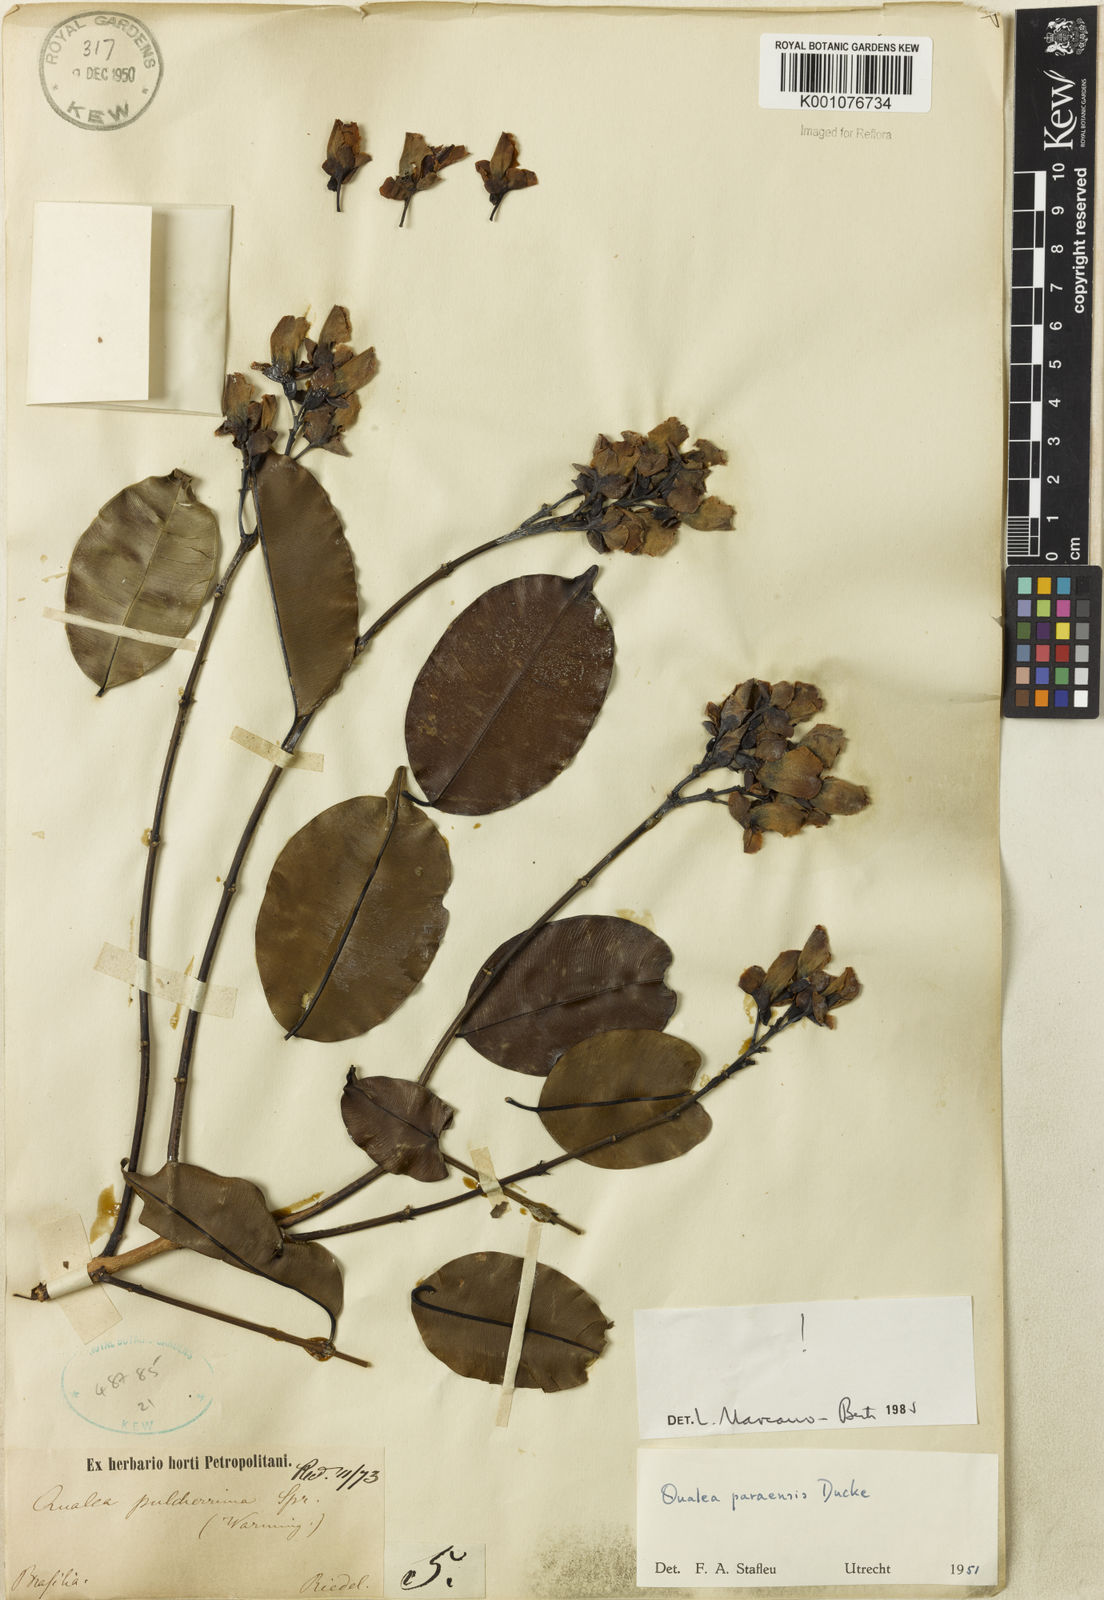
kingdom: Plantae
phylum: Tracheophyta
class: Magnoliopsida
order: Myrtales
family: Vochysiaceae
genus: Qualea
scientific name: Qualea paraensis
